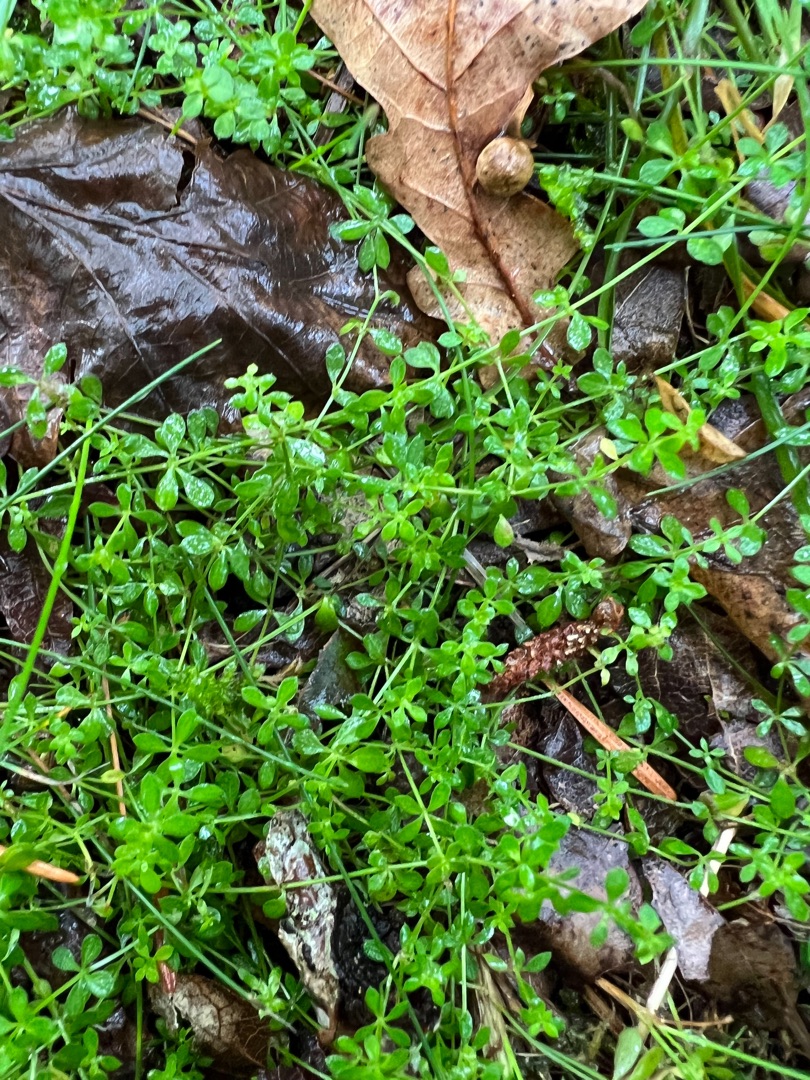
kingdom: Plantae
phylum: Tracheophyta
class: Magnoliopsida
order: Gentianales
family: Rubiaceae
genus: Galium
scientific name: Galium saxatile
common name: Lyng-snerre
